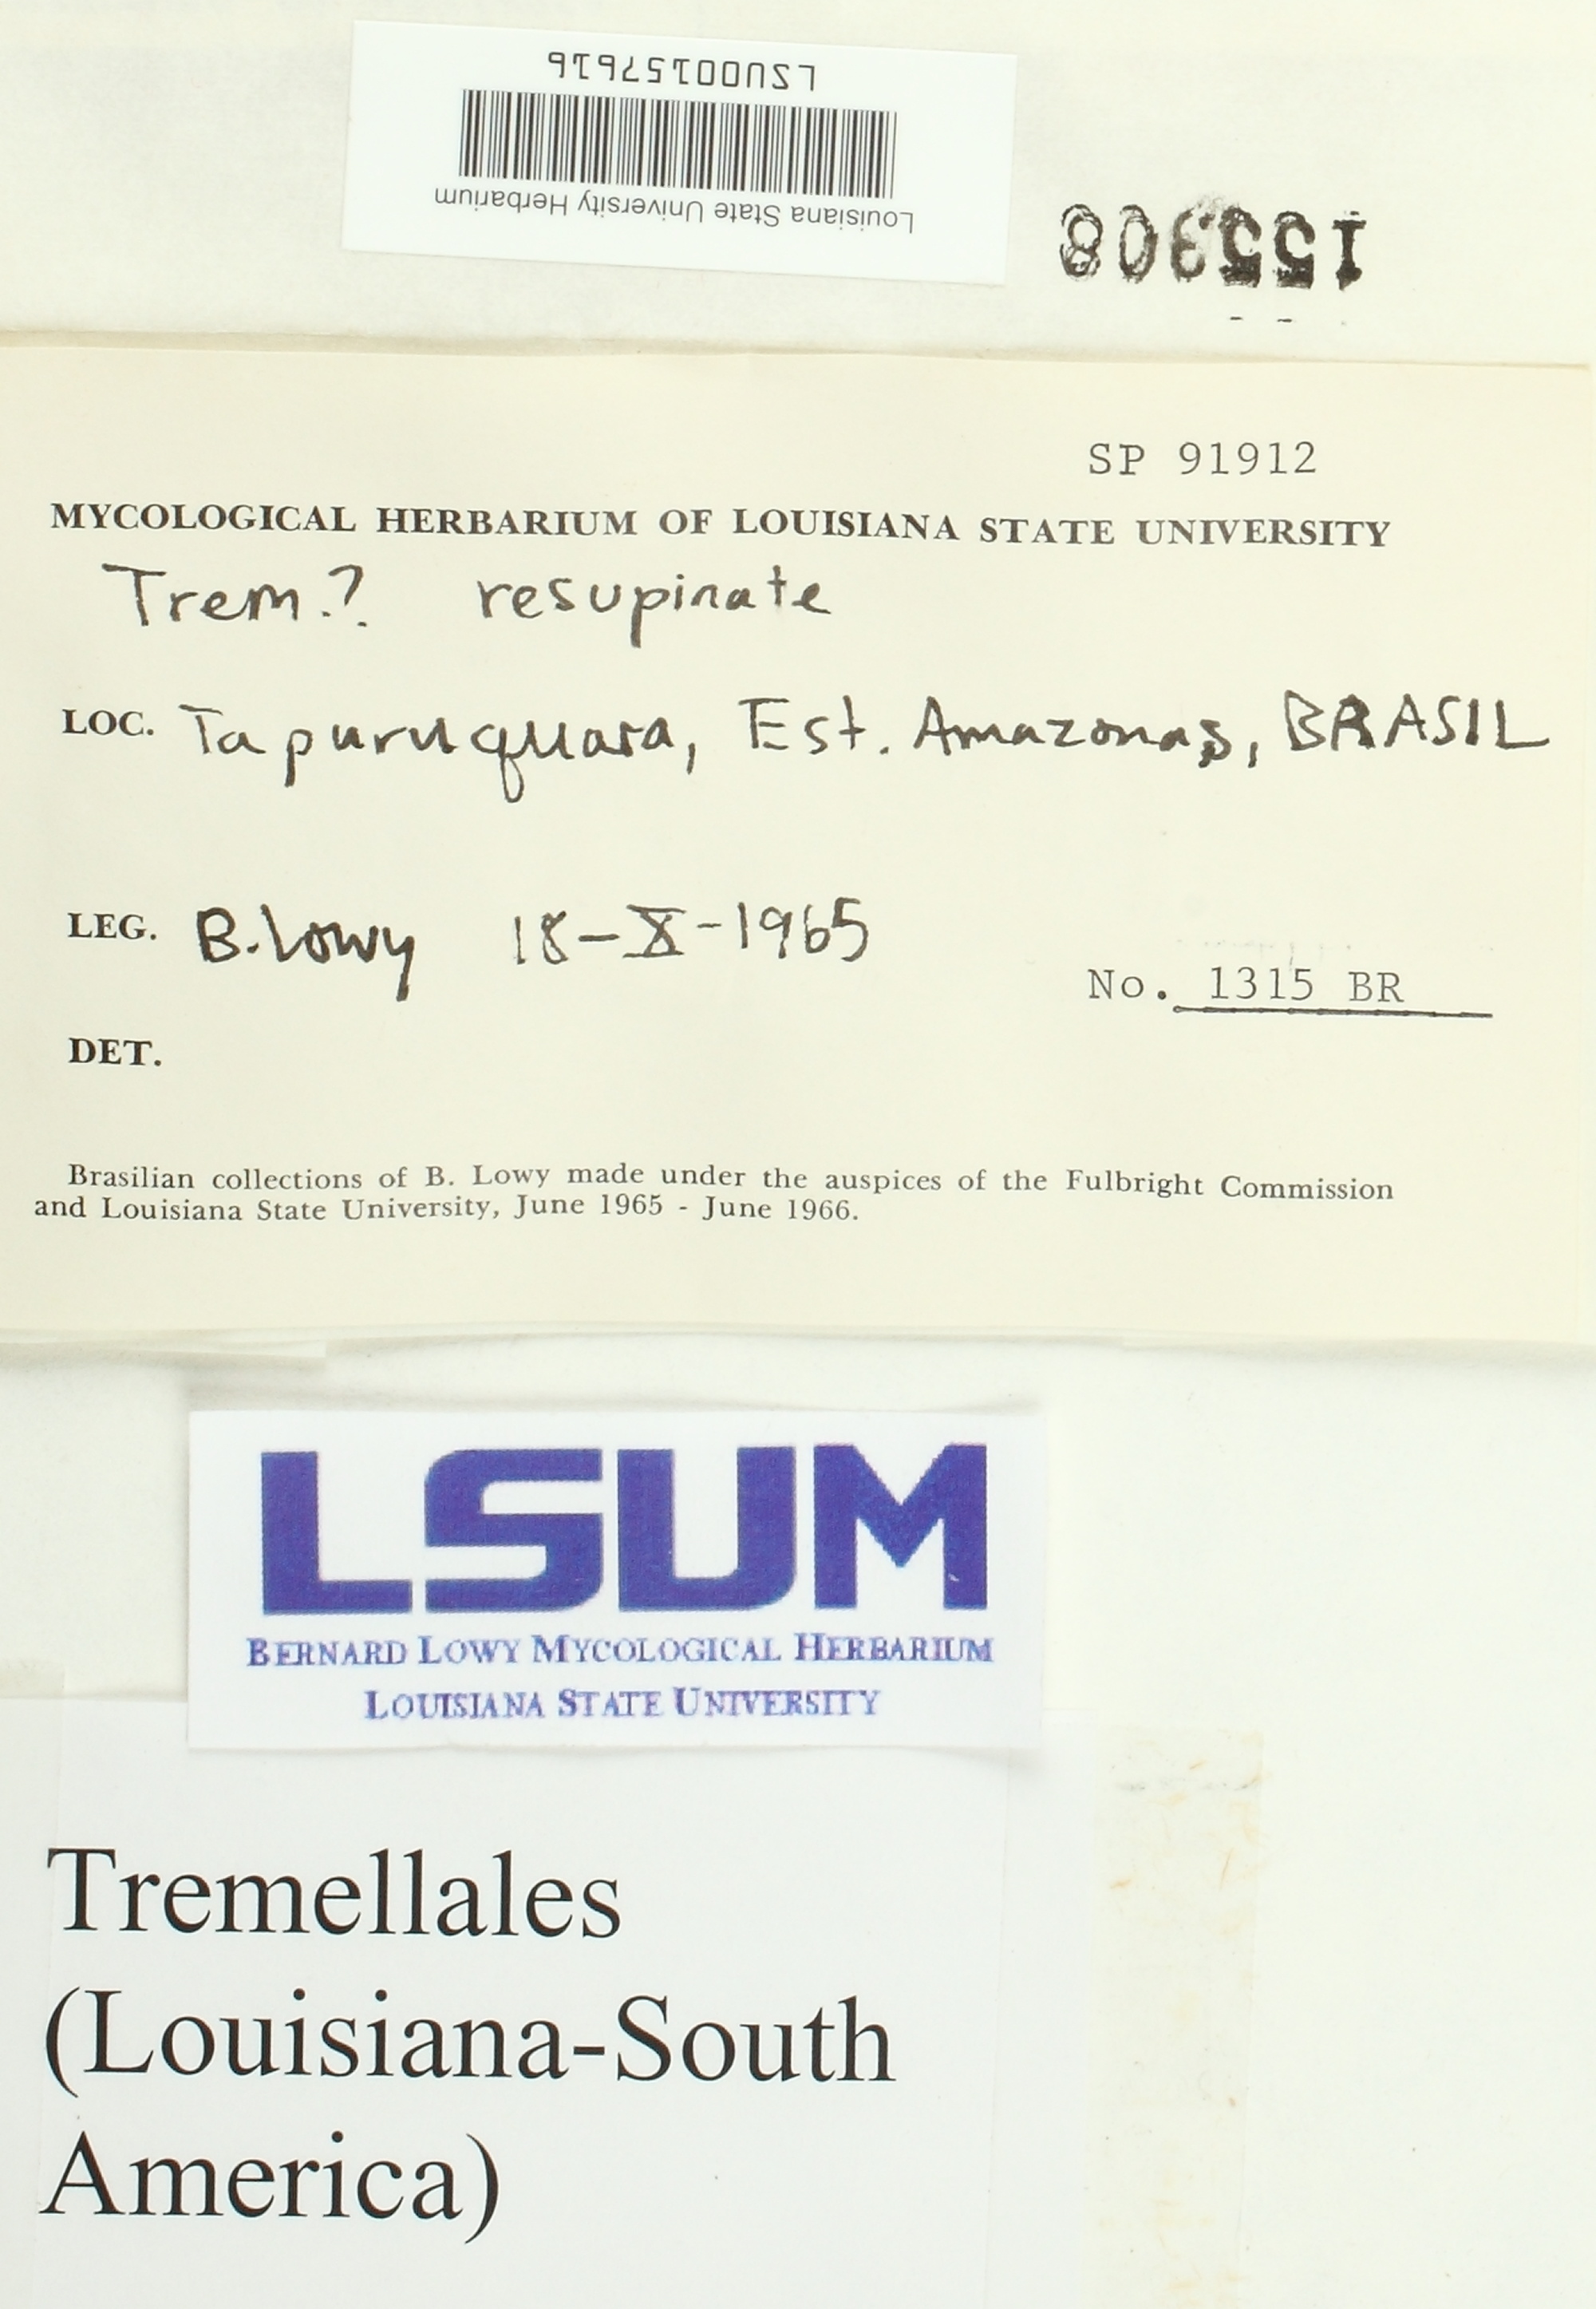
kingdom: Fungi
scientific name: Fungi
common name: Fungi
